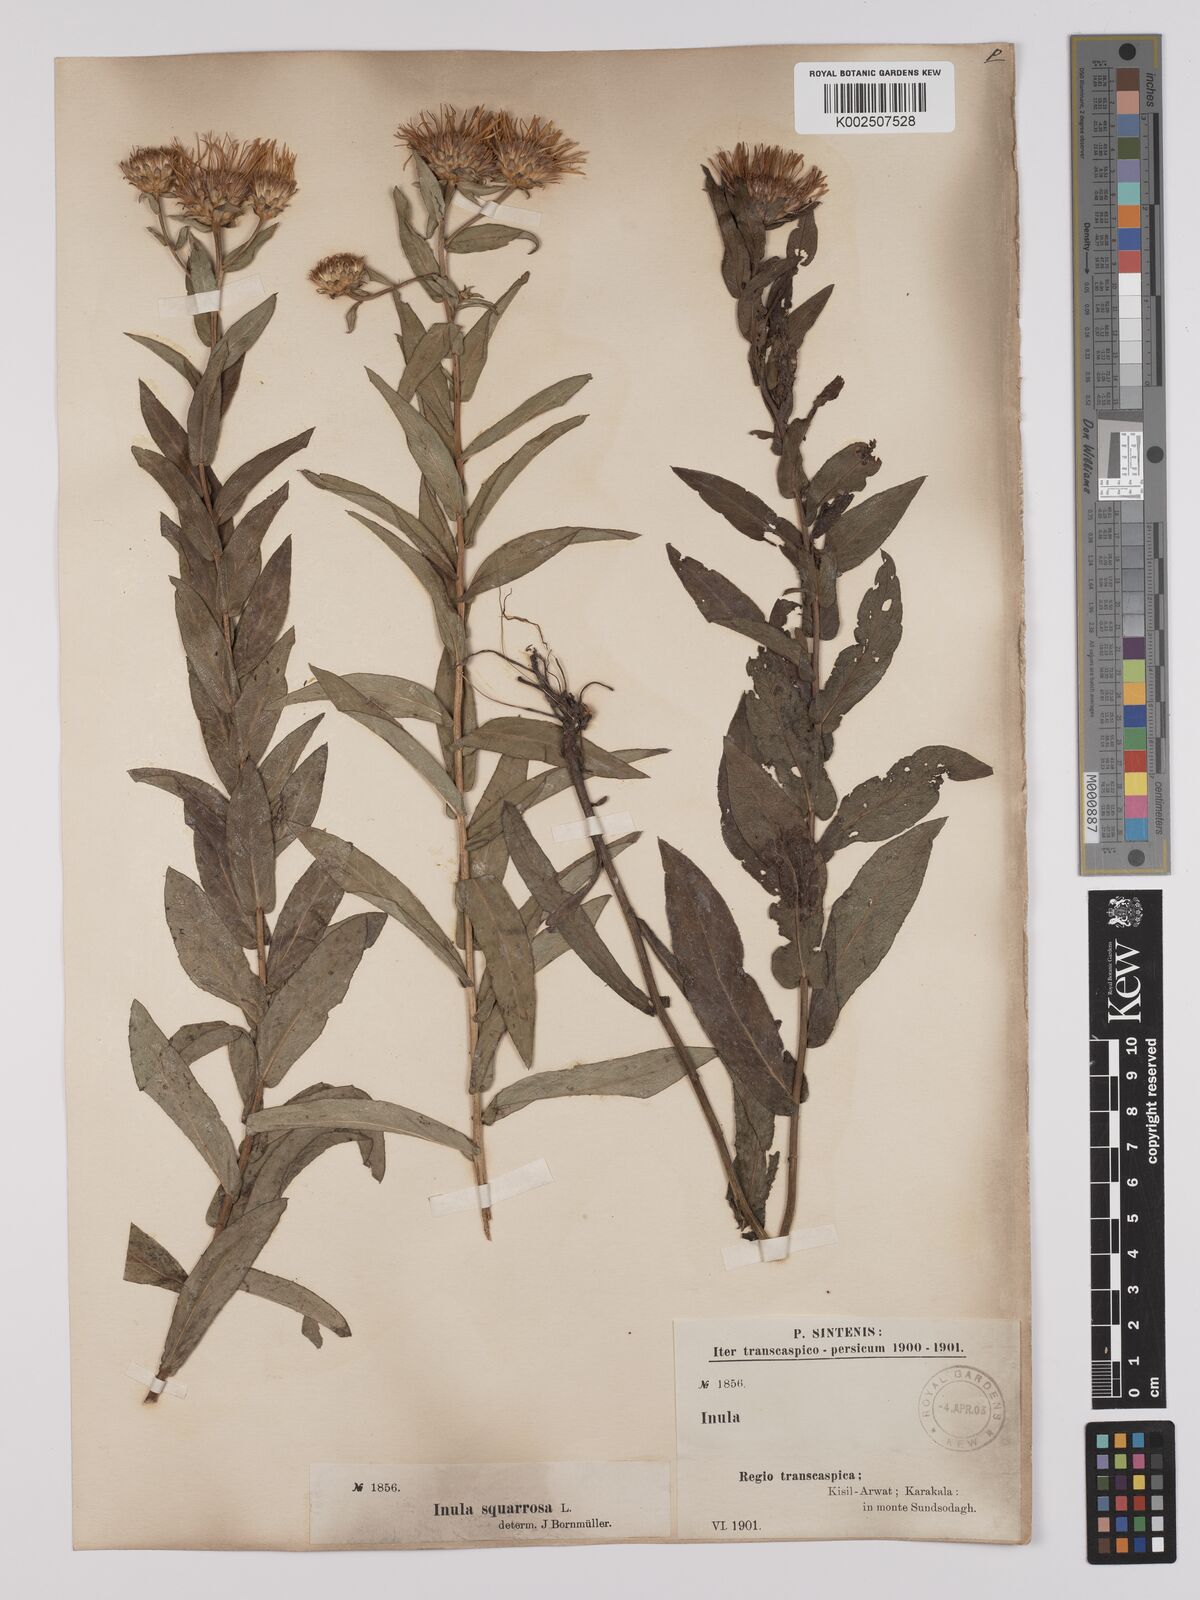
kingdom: Plantae
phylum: Tracheophyta
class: Magnoliopsida
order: Asterales
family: Asteraceae
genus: Pentanema
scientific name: Pentanema spiraeifolium
